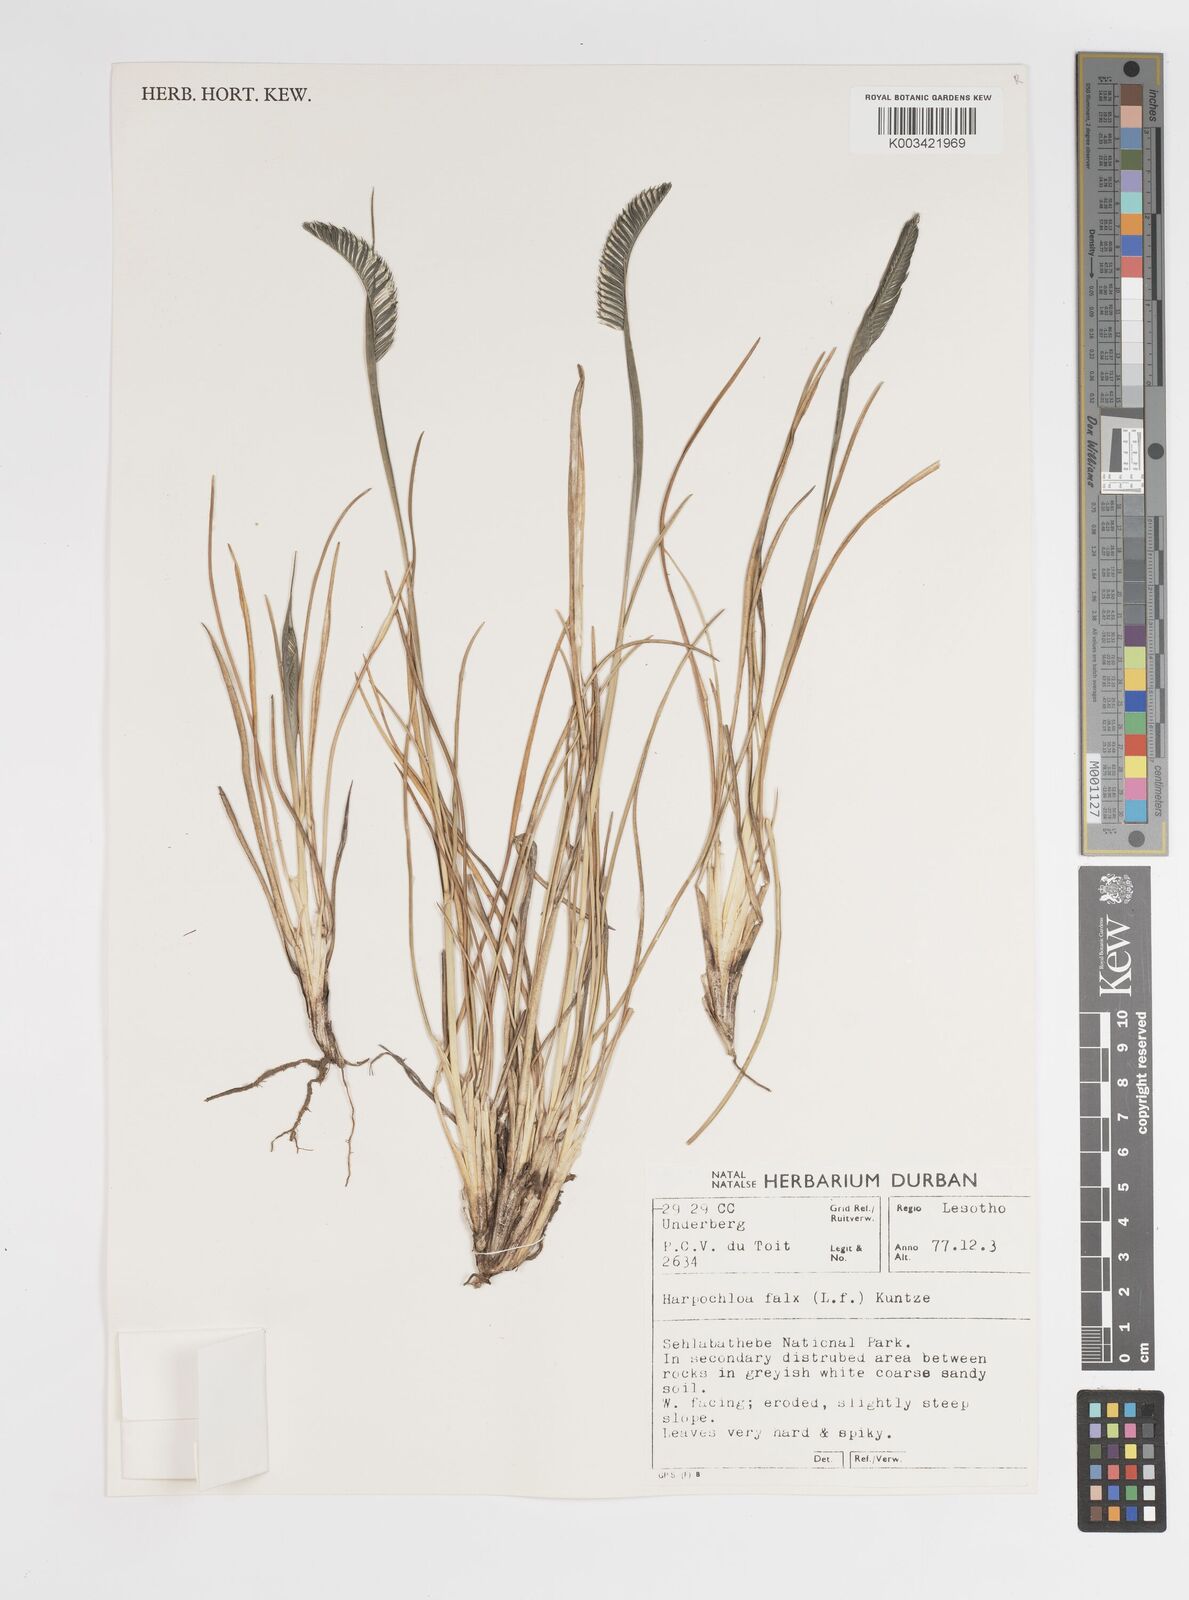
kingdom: Plantae
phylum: Tracheophyta
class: Liliopsida
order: Poales
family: Poaceae
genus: Harpochloa
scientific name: Harpochloa falx
